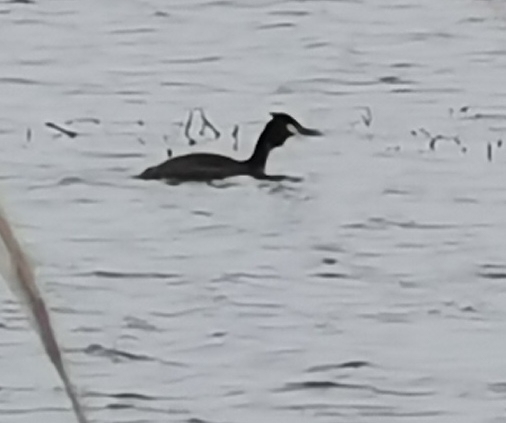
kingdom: Animalia
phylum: Chordata
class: Aves
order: Podicipediformes
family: Podicipedidae
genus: Podiceps
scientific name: Podiceps cristatus
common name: Toppet lappedykker
